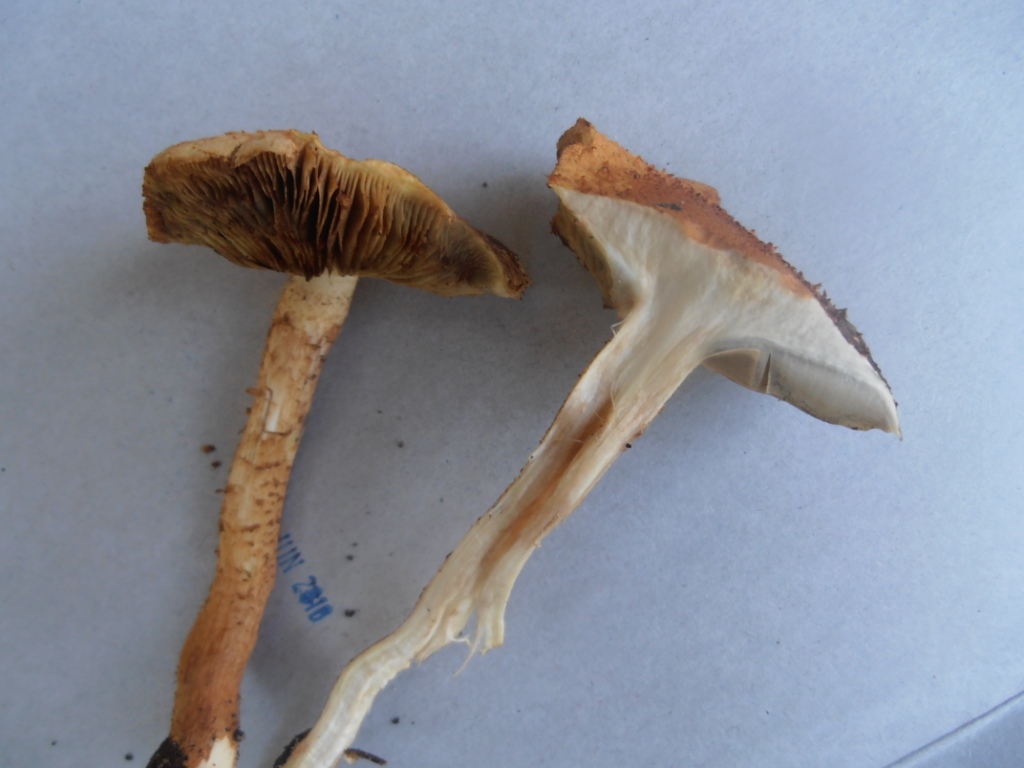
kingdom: Fungi
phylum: Basidiomycota
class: Agaricomycetes
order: Agaricales
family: Strophariaceae
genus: Pholiota
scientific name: Pholiota squarrosa
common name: krumskællet skælhat
